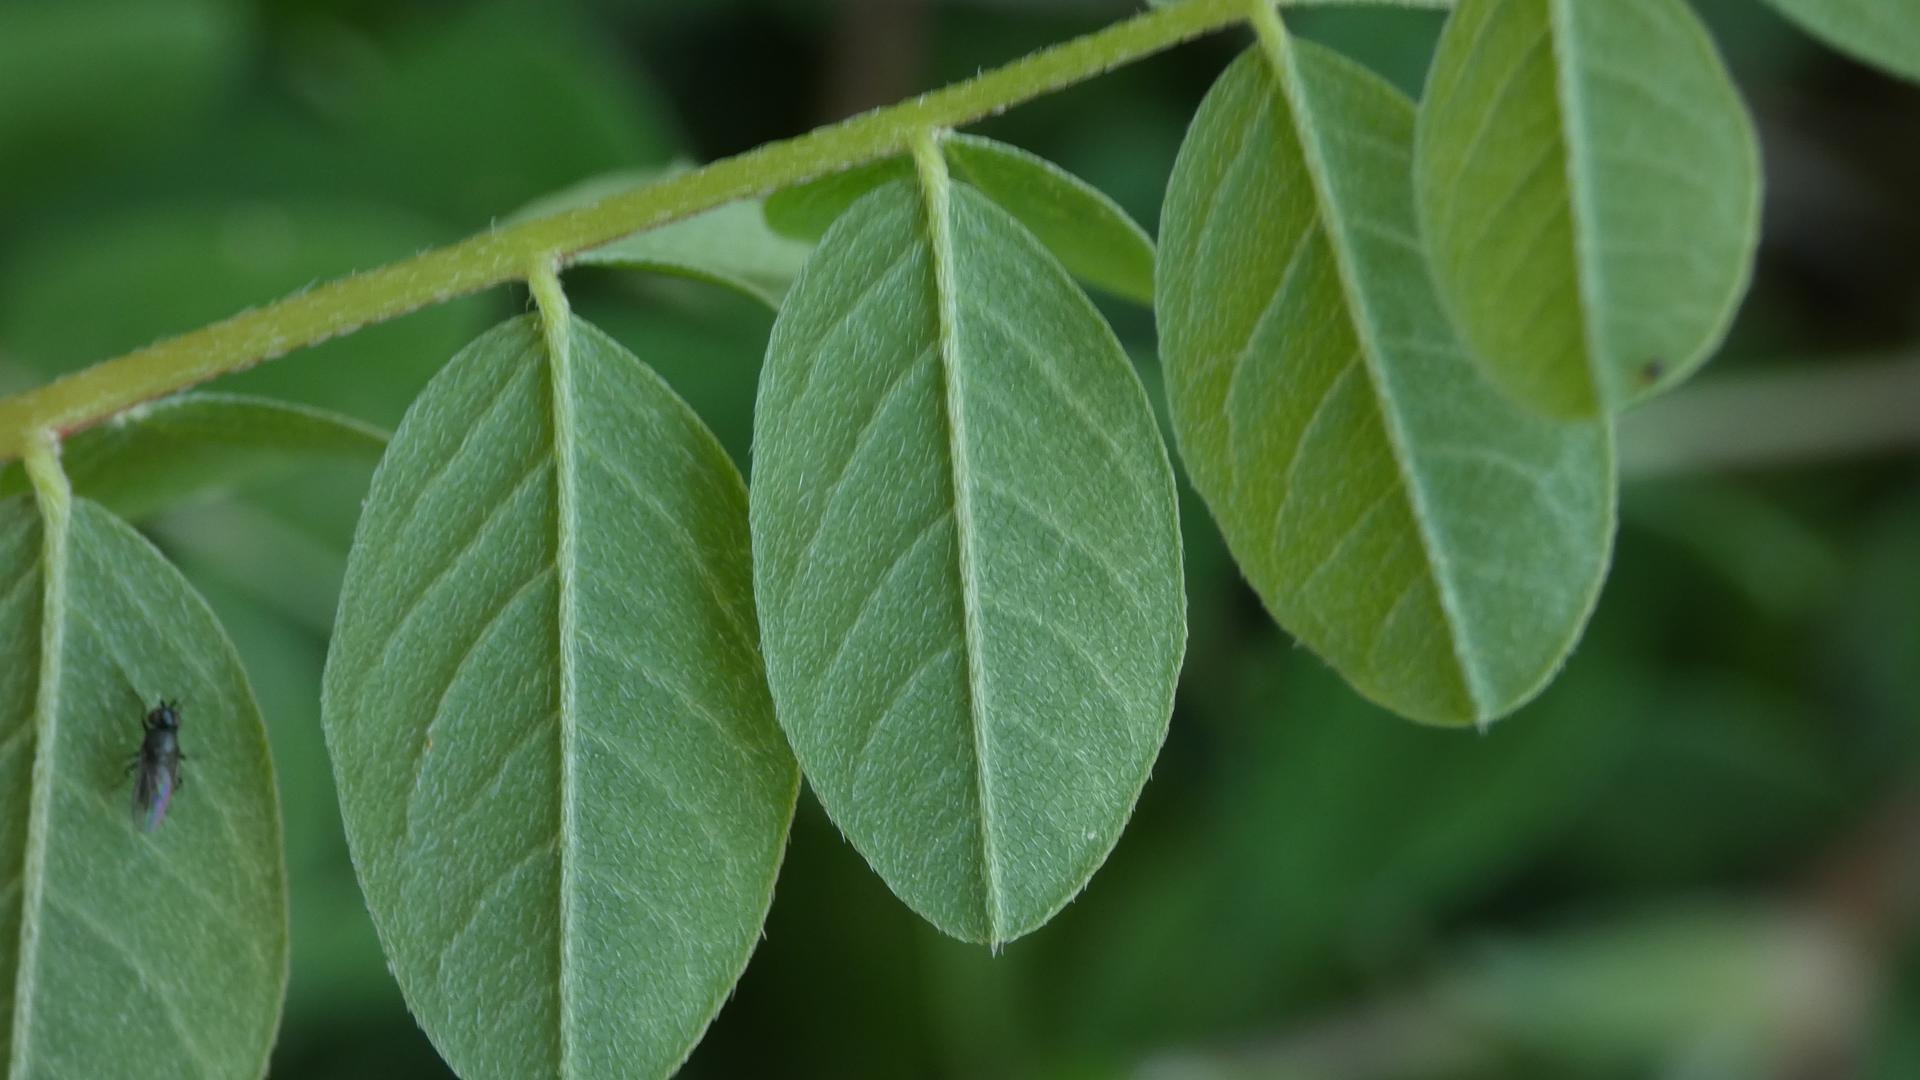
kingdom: Plantae
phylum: Tracheophyta
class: Magnoliopsida
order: Fabales
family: Fabaceae
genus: Astragalus
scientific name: Astragalus glycyphyllos
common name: Sød astragel
